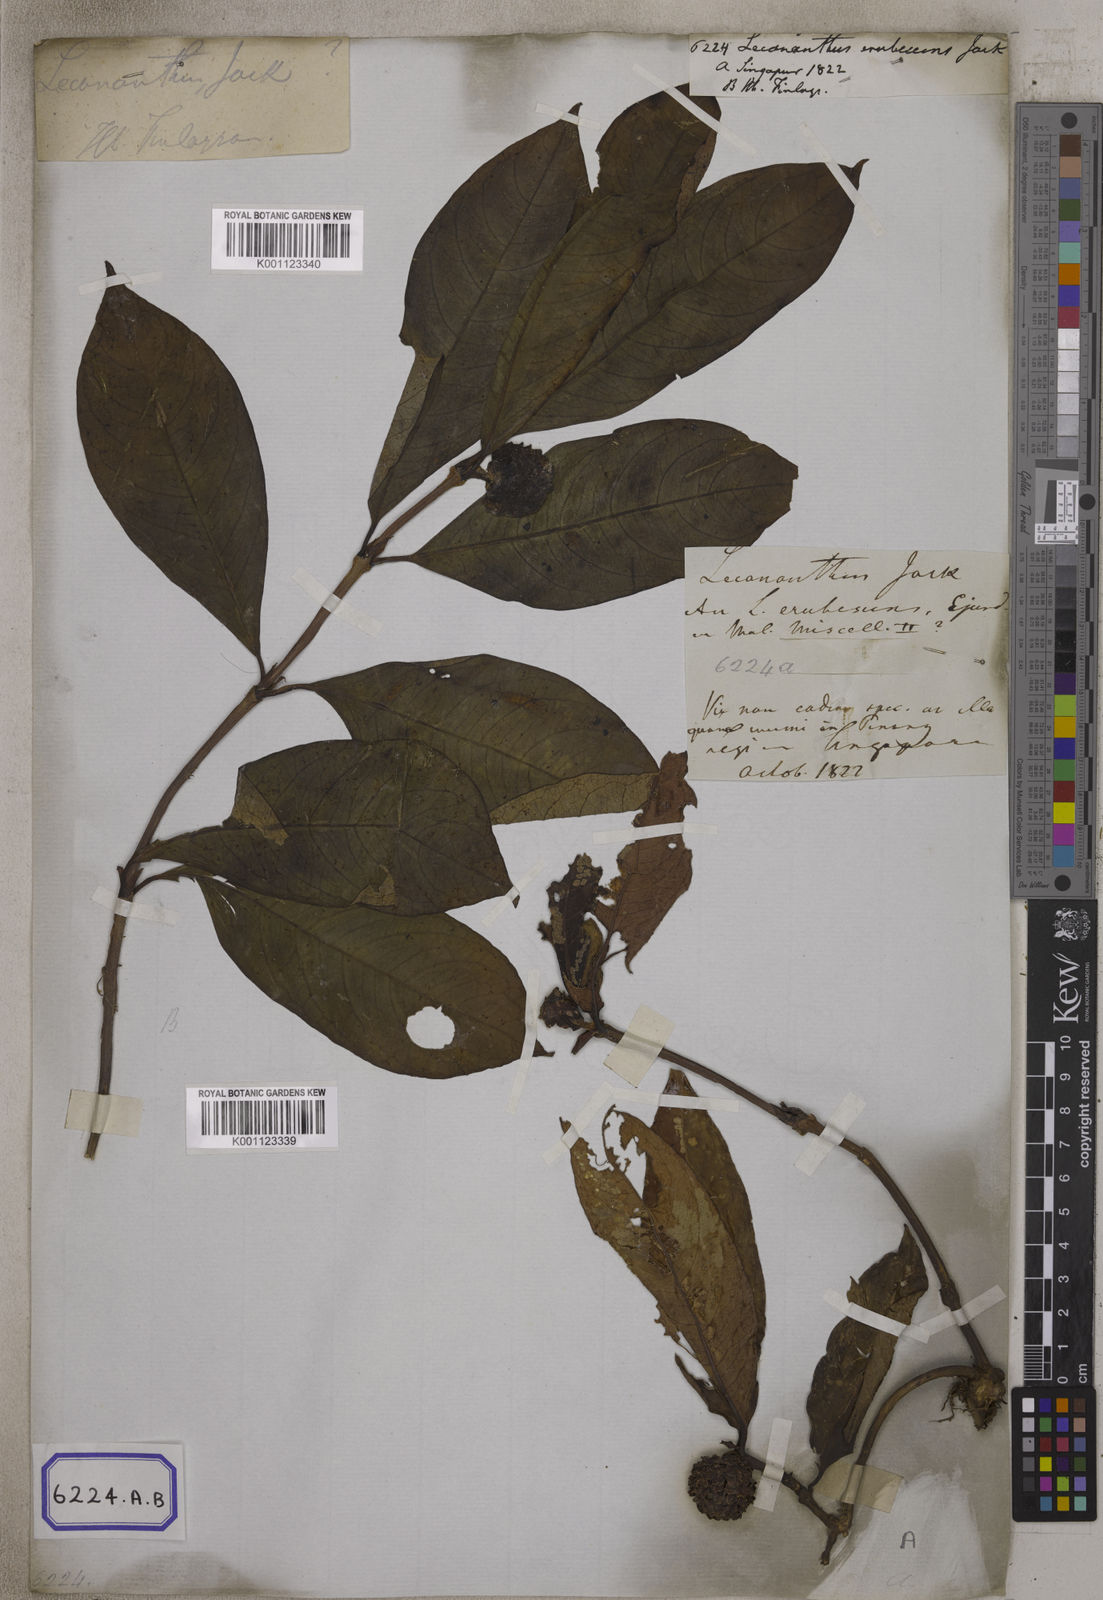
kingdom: Plantae
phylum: Tracheophyta
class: Magnoliopsida
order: Gentianales
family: Rubiaceae
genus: Lecananthus
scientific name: Lecananthus erubescens
